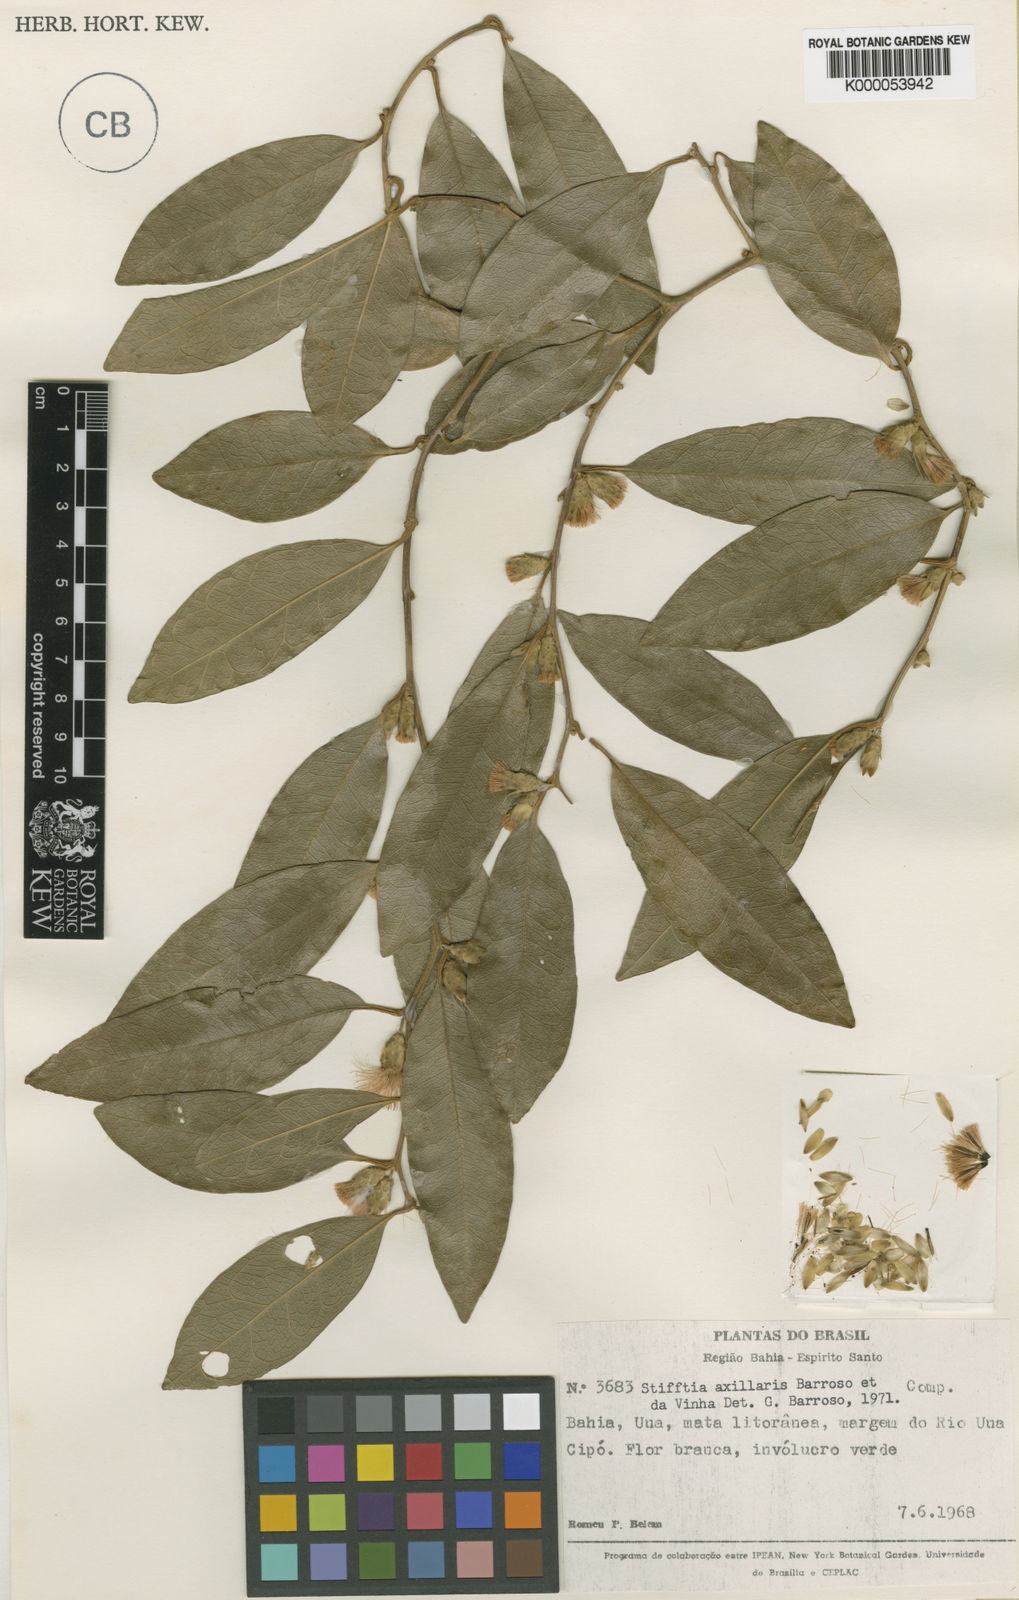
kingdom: Plantae
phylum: Tracheophyta
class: Magnoliopsida
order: Asterales
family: Asteraceae
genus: Piptocarpha
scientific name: Piptocarpha stifftioides
